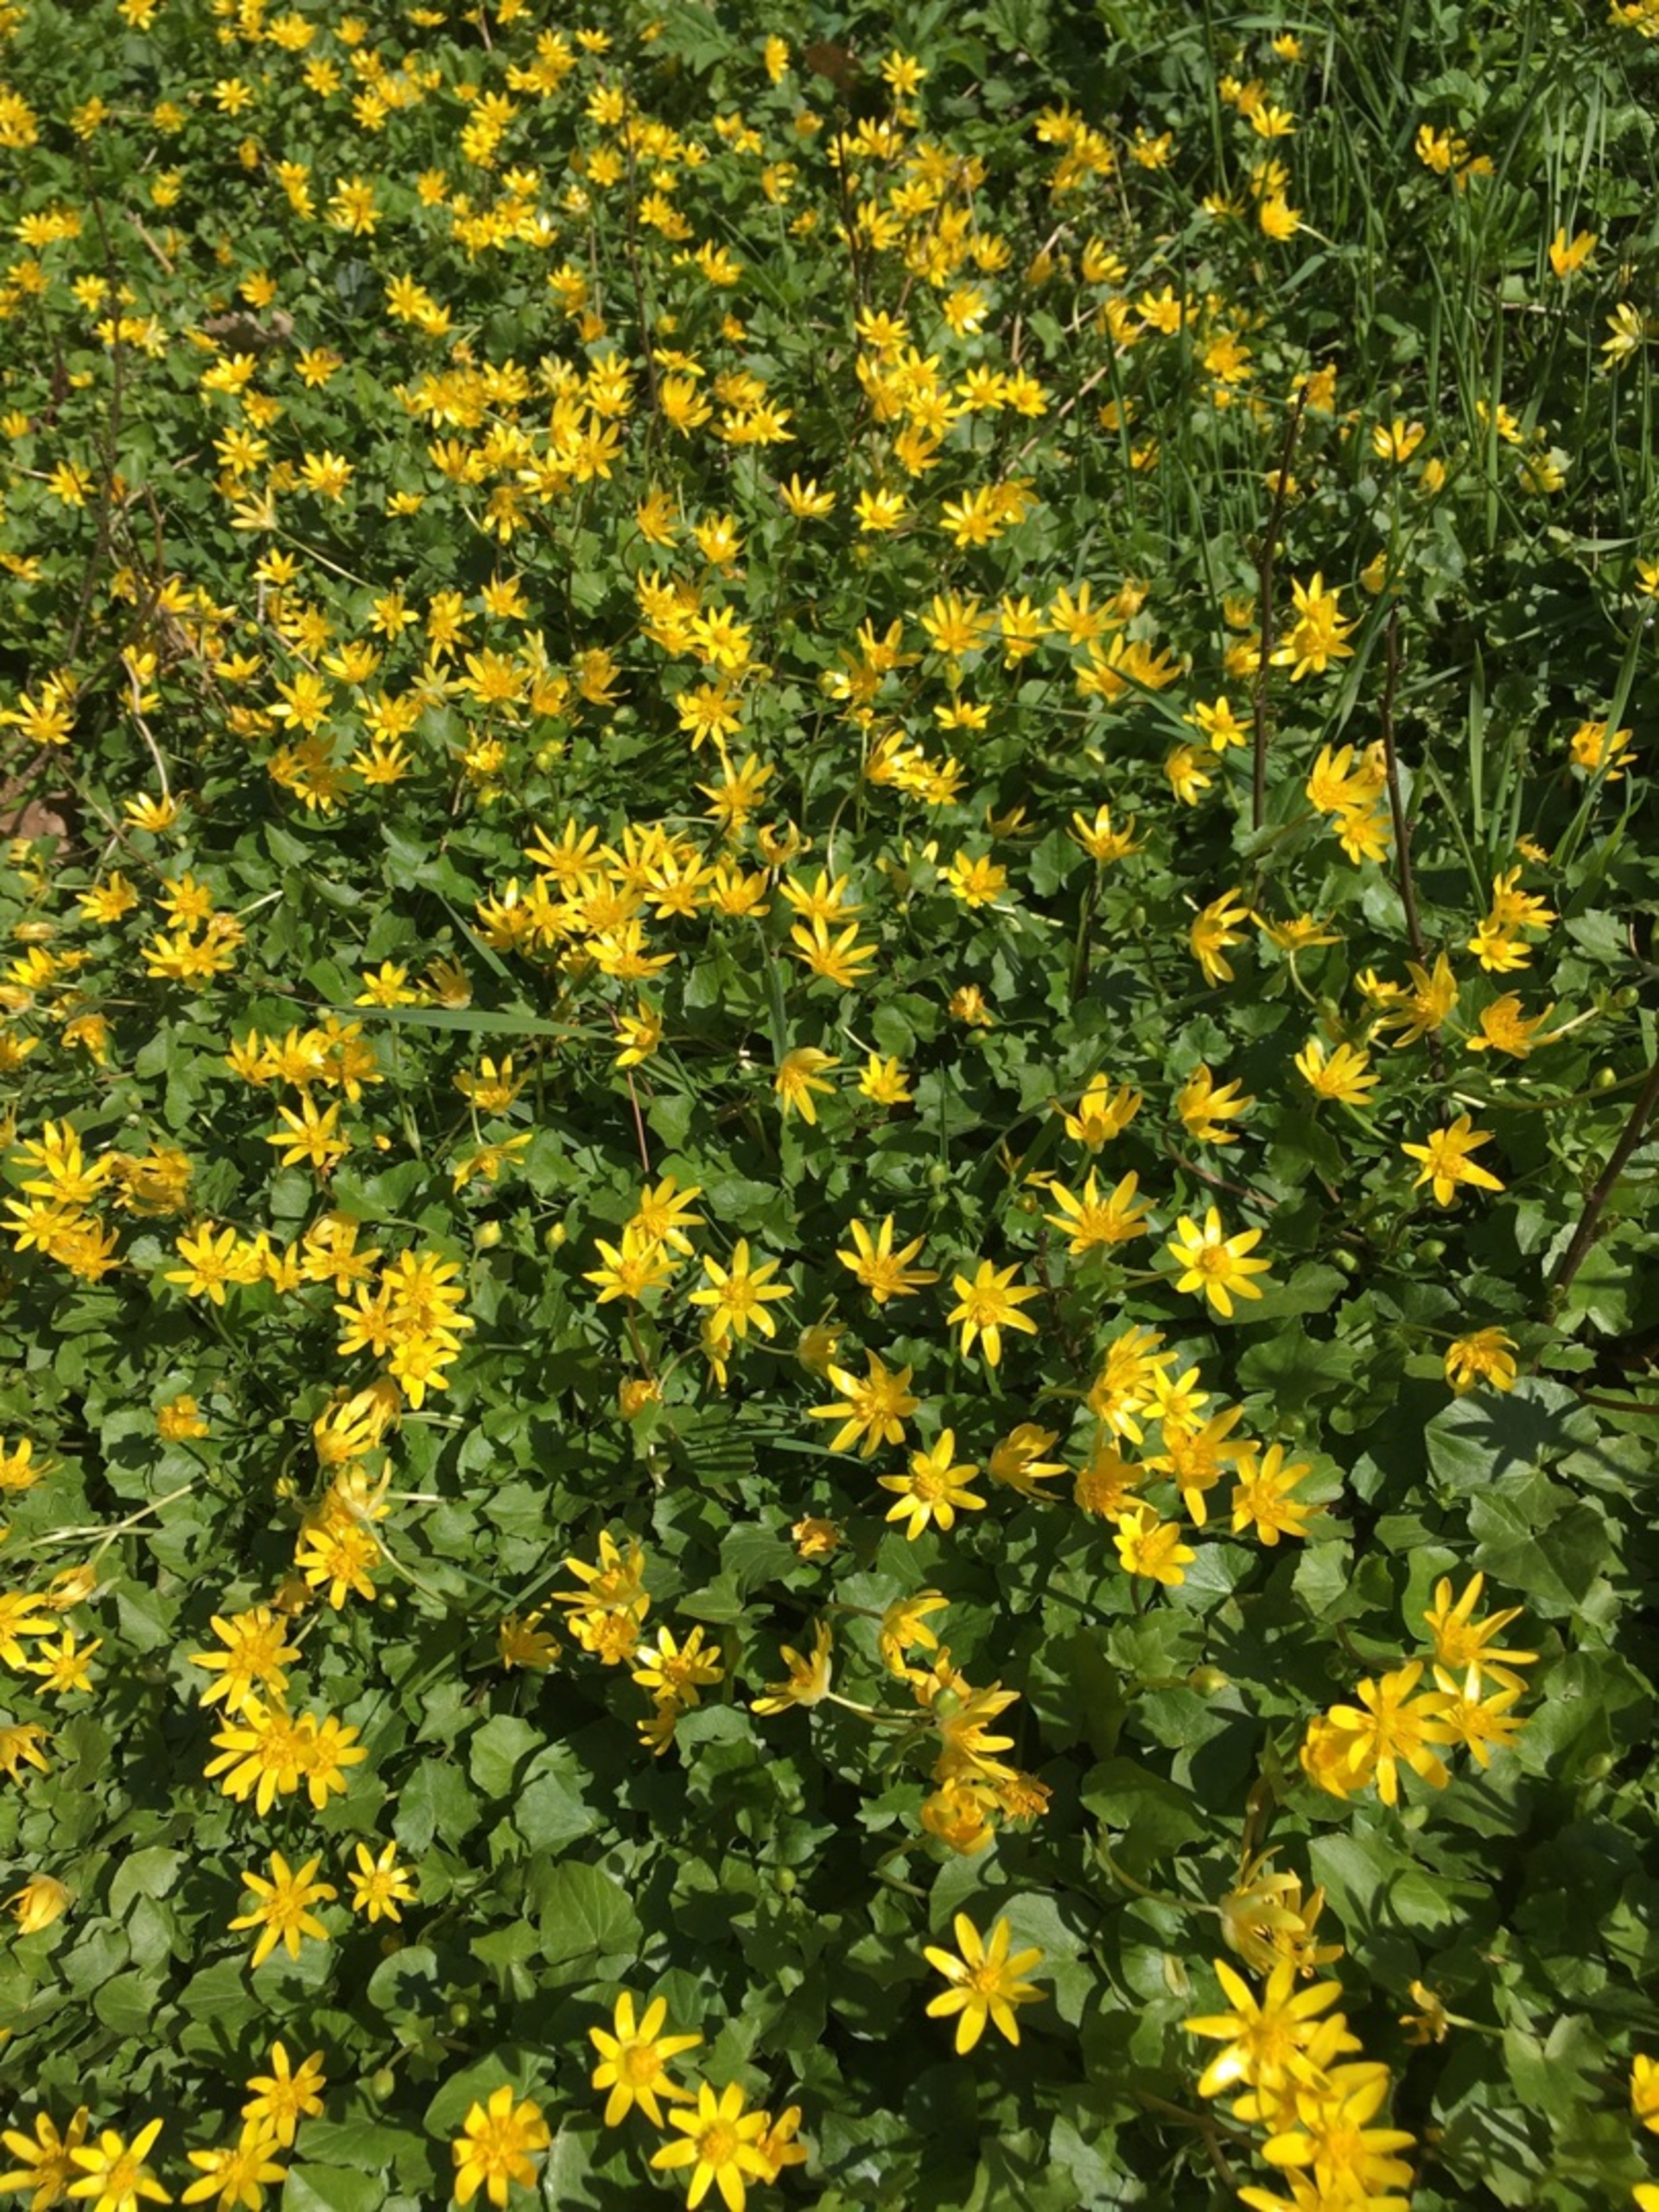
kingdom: Plantae
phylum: Tracheophyta
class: Magnoliopsida
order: Ranunculales
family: Ranunculaceae
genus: Ficaria
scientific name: Ficaria verna
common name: Vorterod
